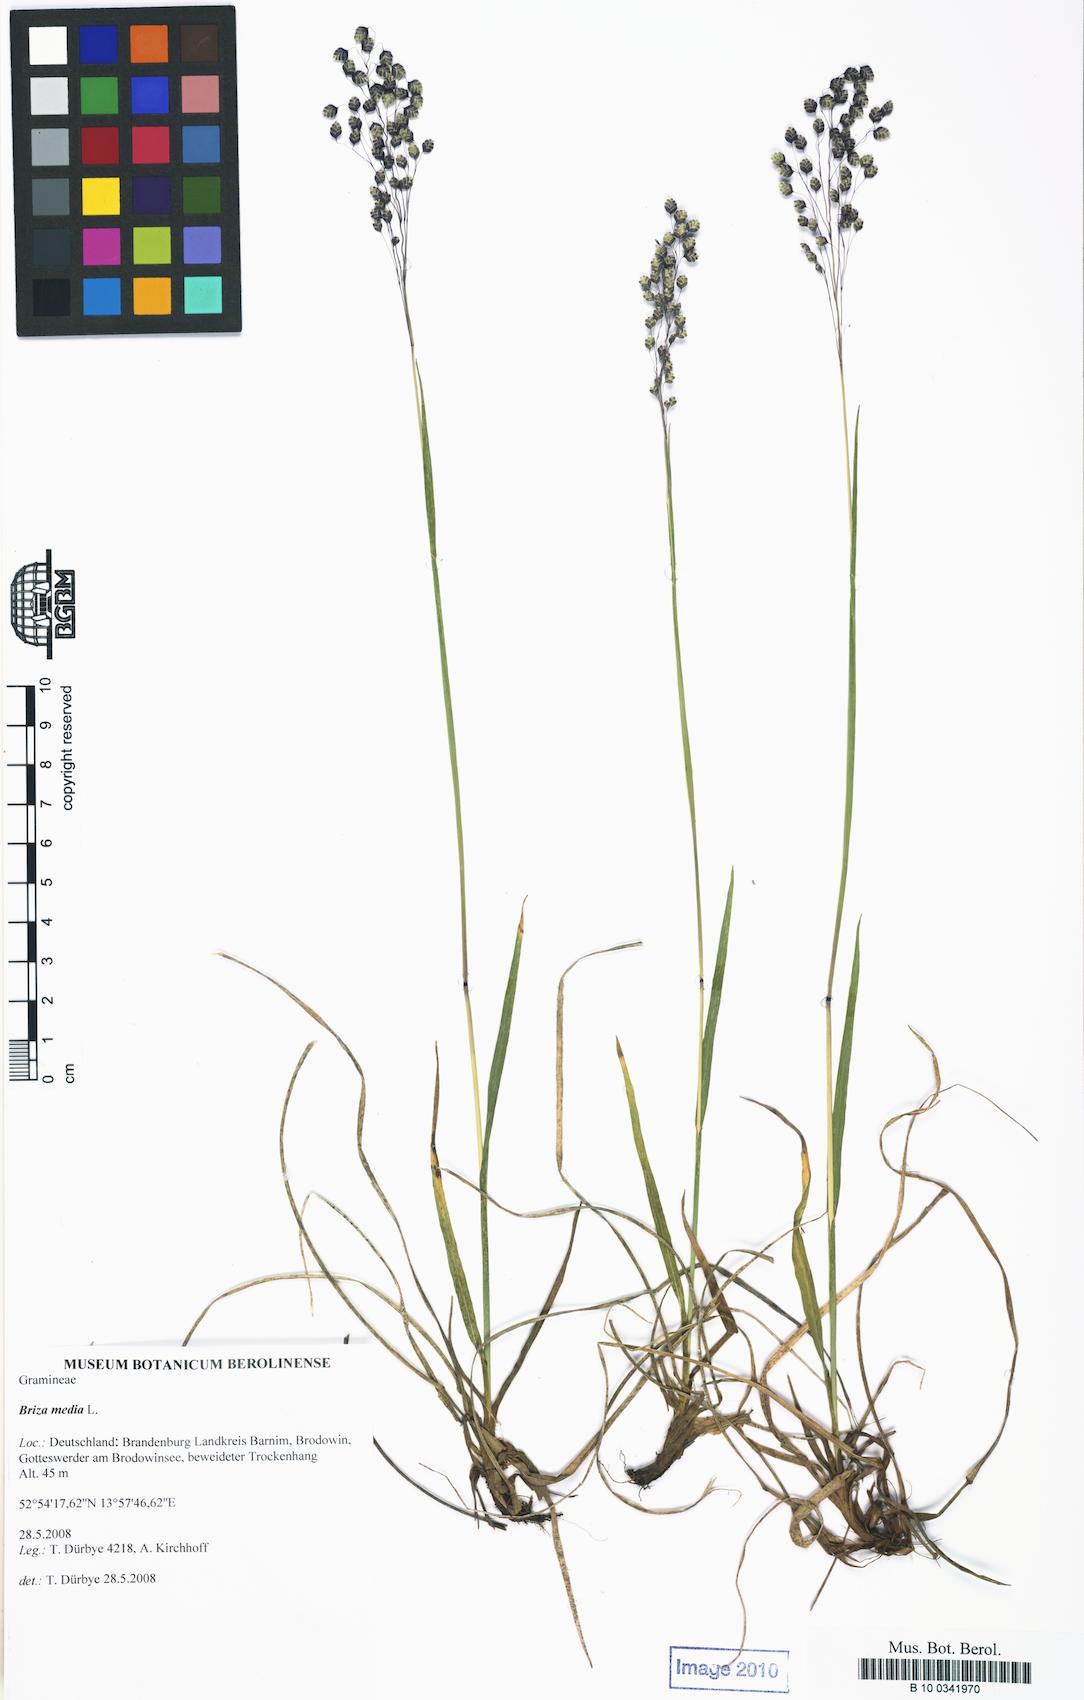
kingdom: Plantae
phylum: Tracheophyta
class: Liliopsida
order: Poales
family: Poaceae
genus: Briza
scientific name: Briza media
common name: Quaking grass
